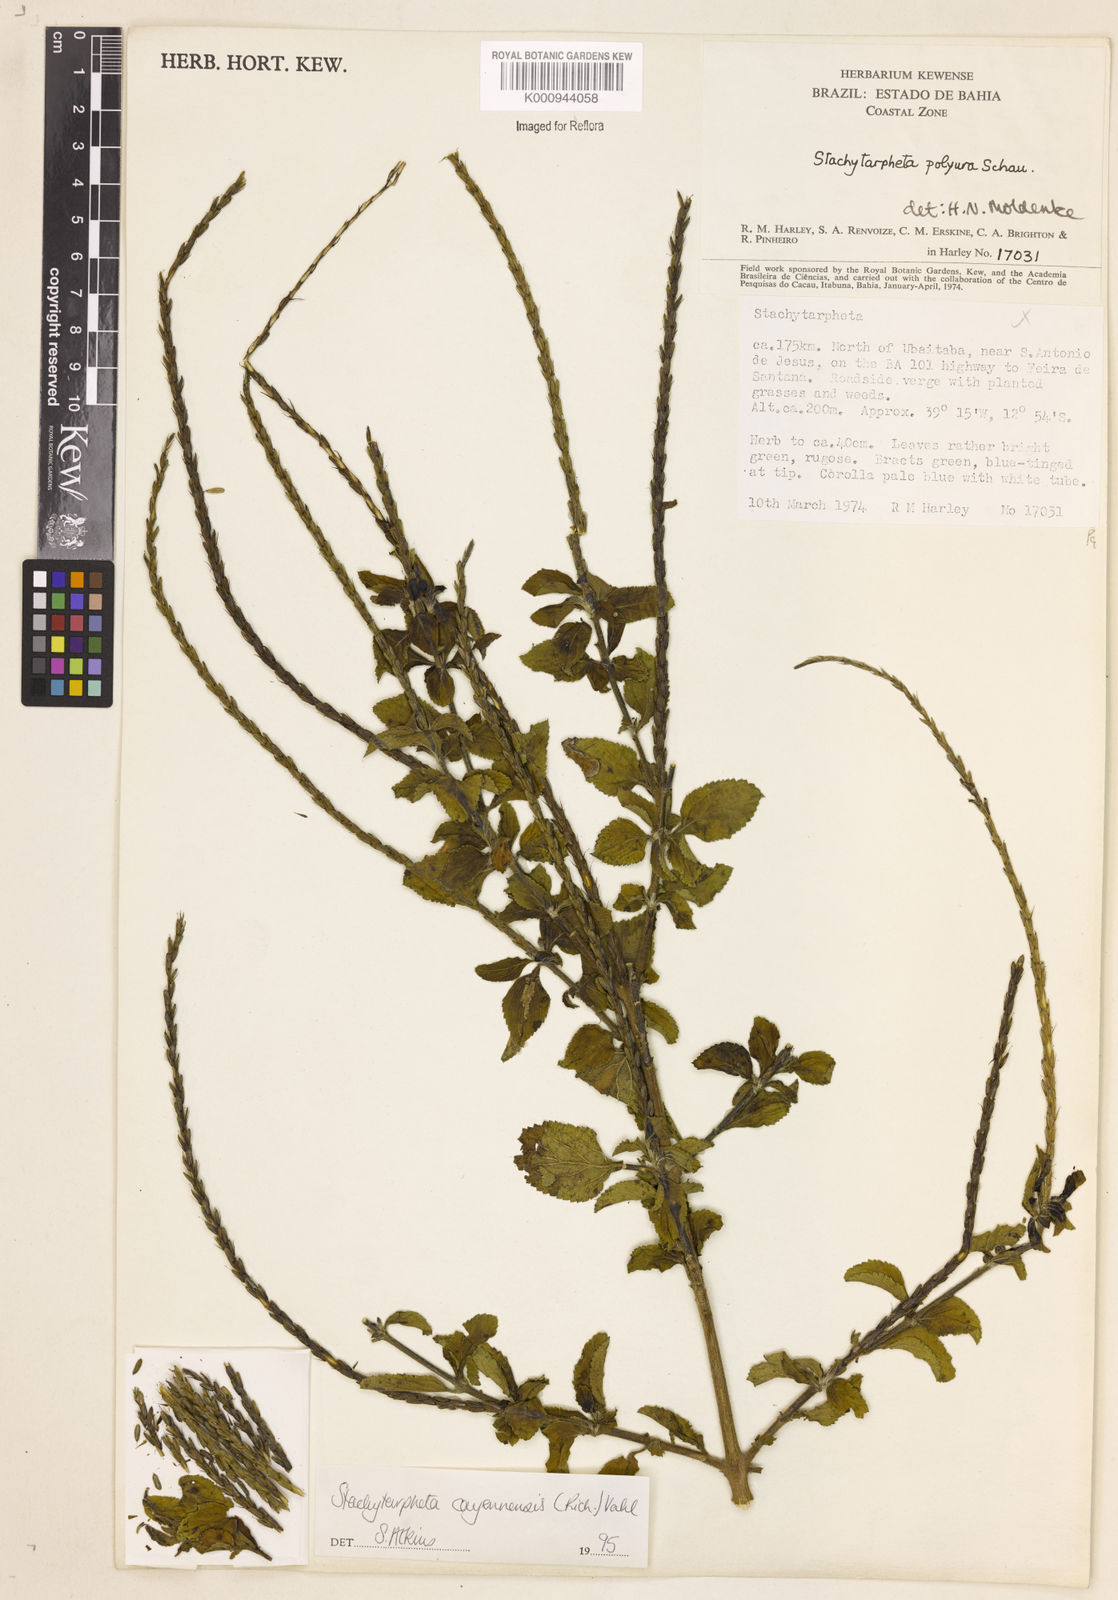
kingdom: Plantae
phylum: Tracheophyta
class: Magnoliopsida
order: Lamiales
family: Verbenaceae
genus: Aloysia
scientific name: Aloysia
